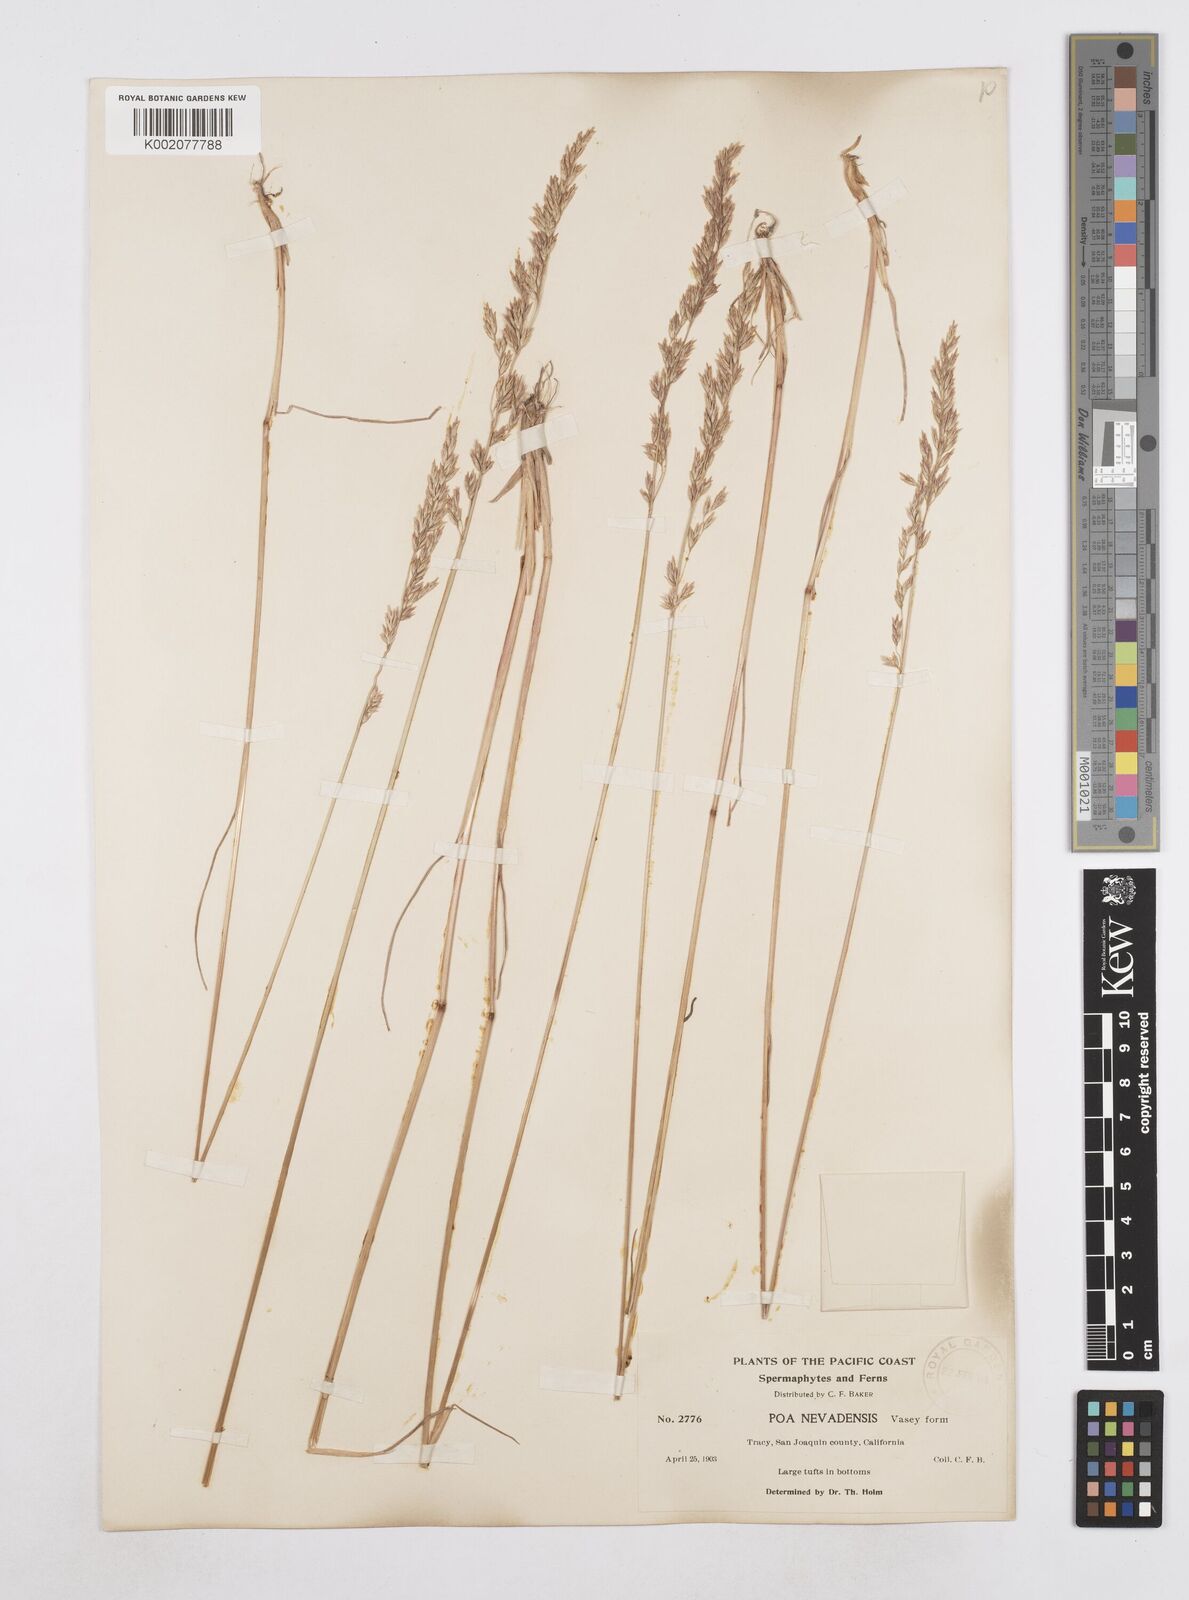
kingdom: Plantae
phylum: Tracheophyta
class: Liliopsida
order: Poales
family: Poaceae
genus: Poa
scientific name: Poa secunda
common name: Sandberg bluegrass
